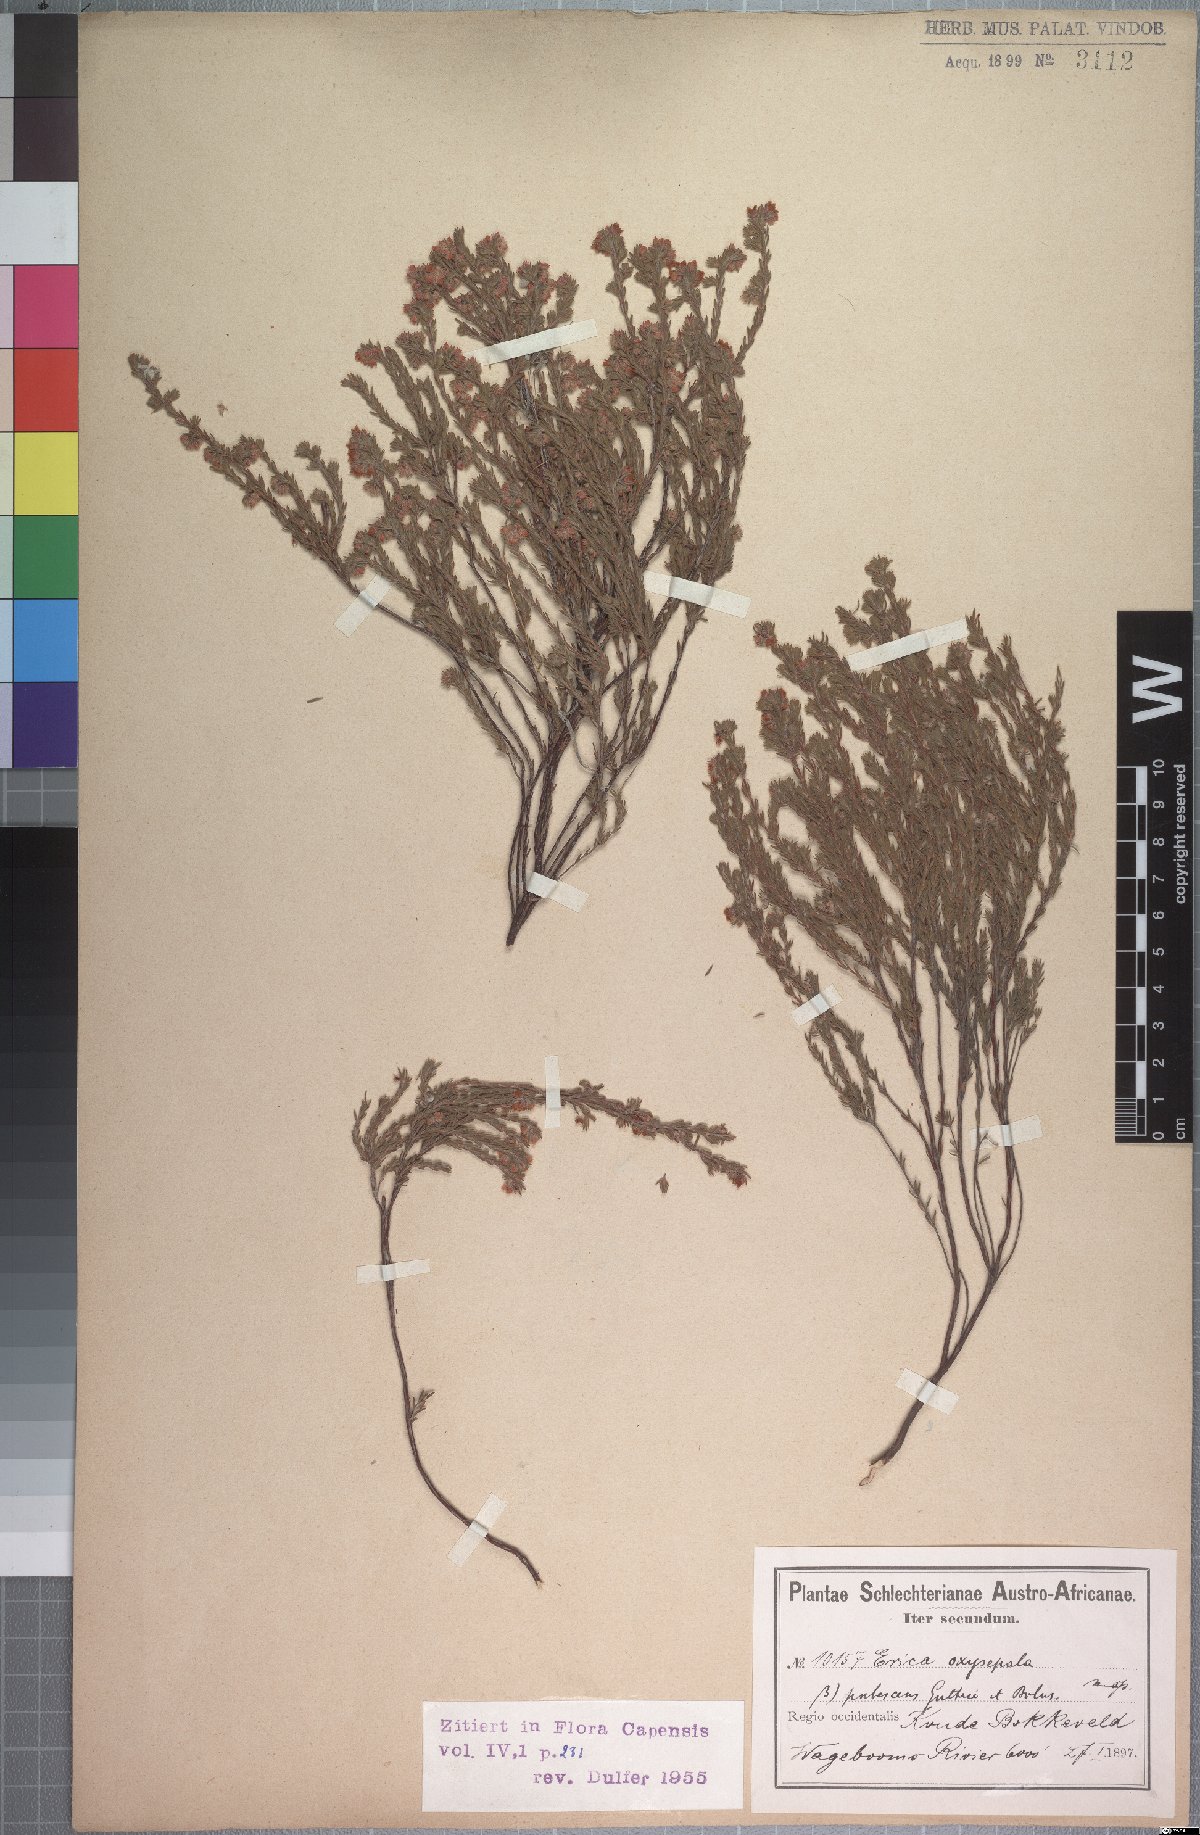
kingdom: Plantae
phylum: Tracheophyta
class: Magnoliopsida
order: Ericales
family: Ericaceae
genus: Erica
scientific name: Erica sphaerocephala
